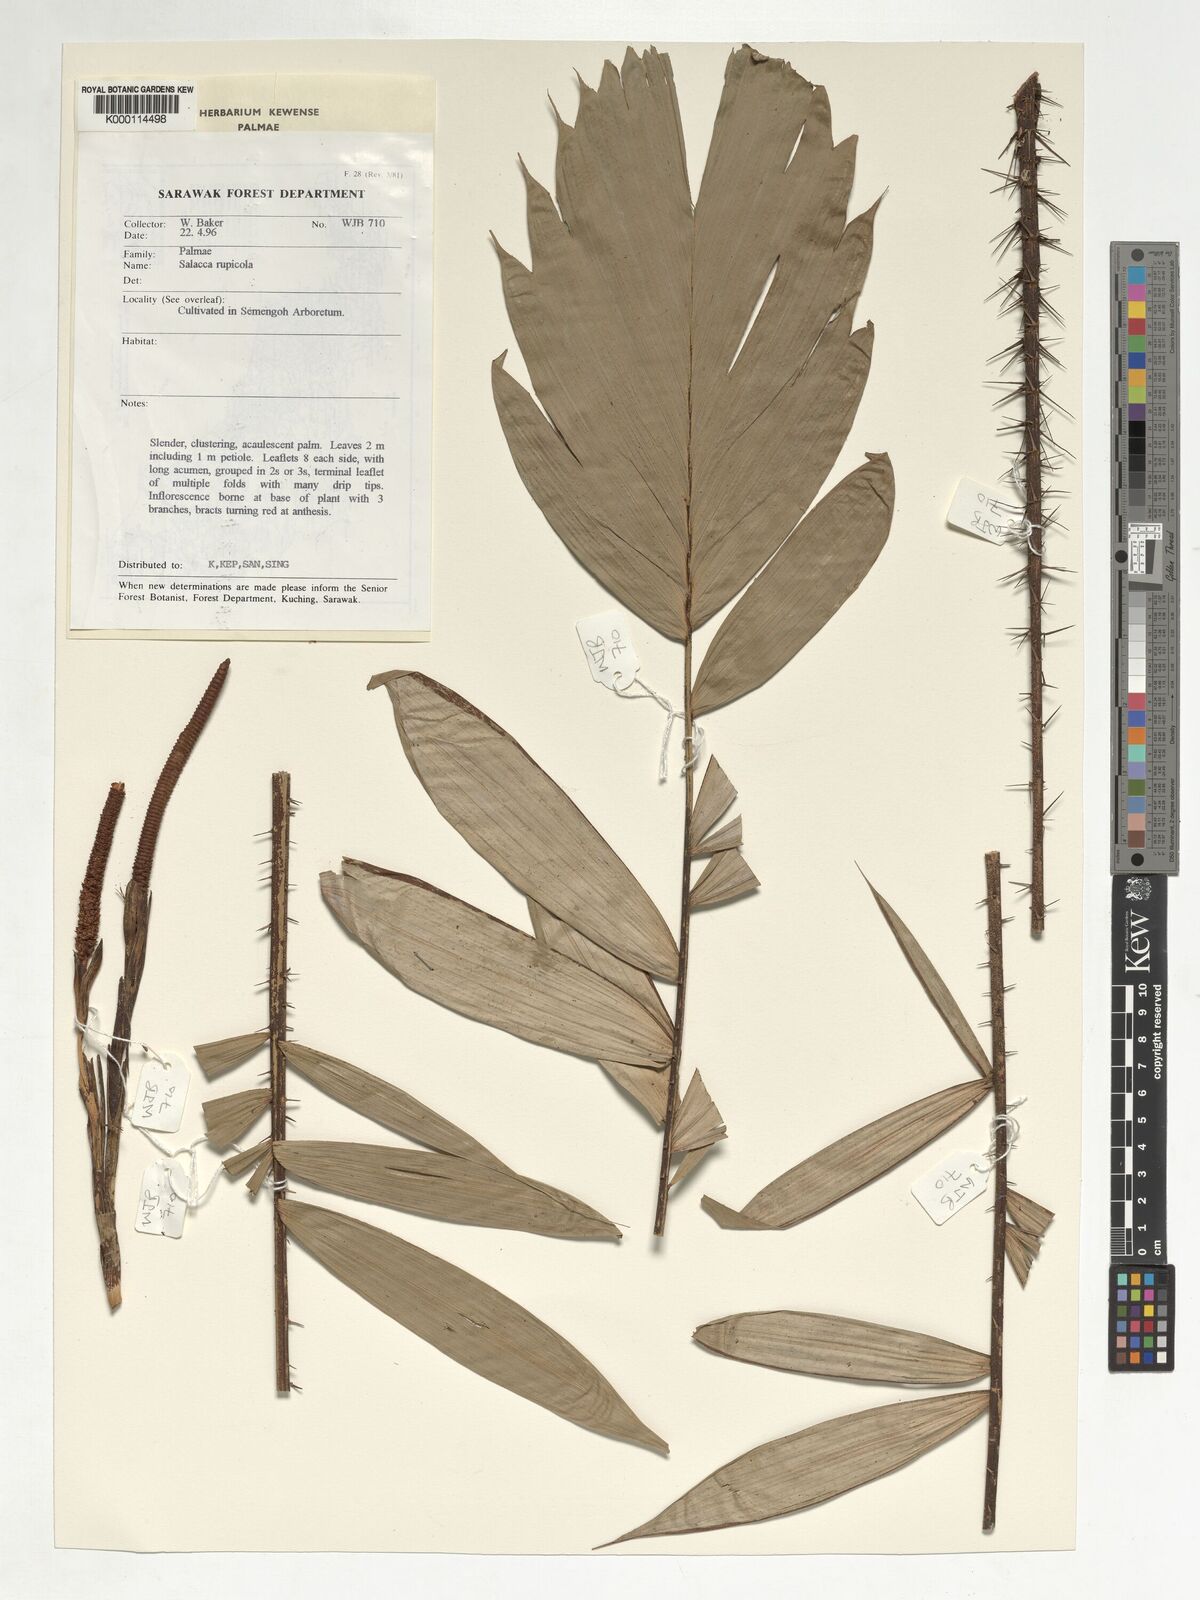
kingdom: Plantae
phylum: Tracheophyta
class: Liliopsida
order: Arecales
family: Arecaceae
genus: Salacca
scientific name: Salacca rupicola
